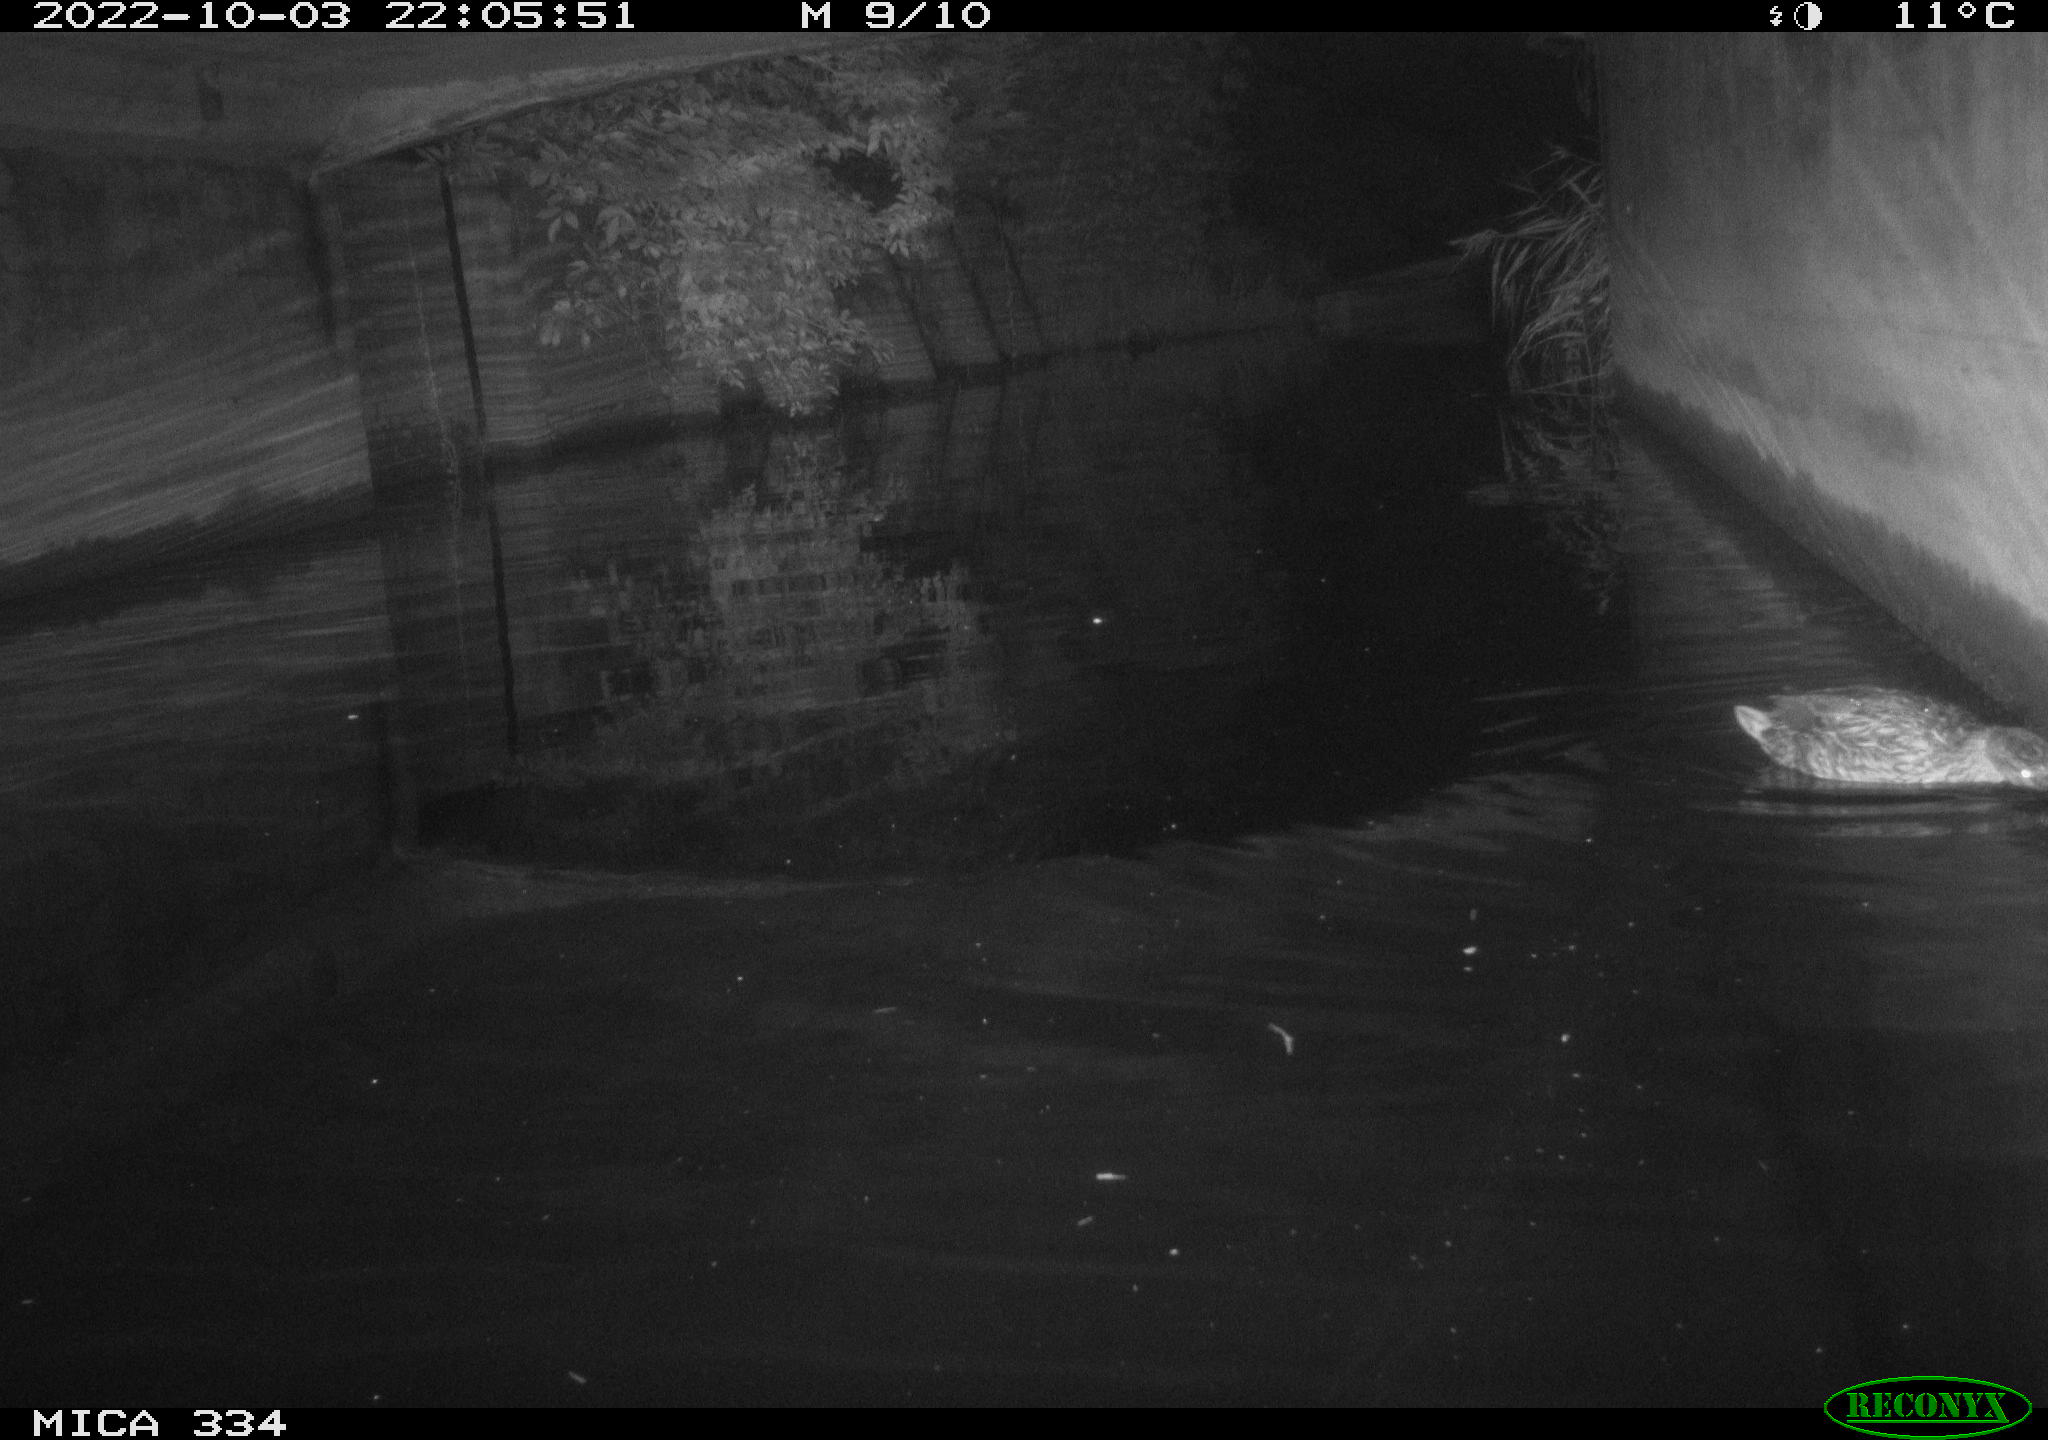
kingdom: Animalia
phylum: Chordata
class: Aves
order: Anseriformes
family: Anatidae
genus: Anas
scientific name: Anas platyrhynchos
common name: Mallard
